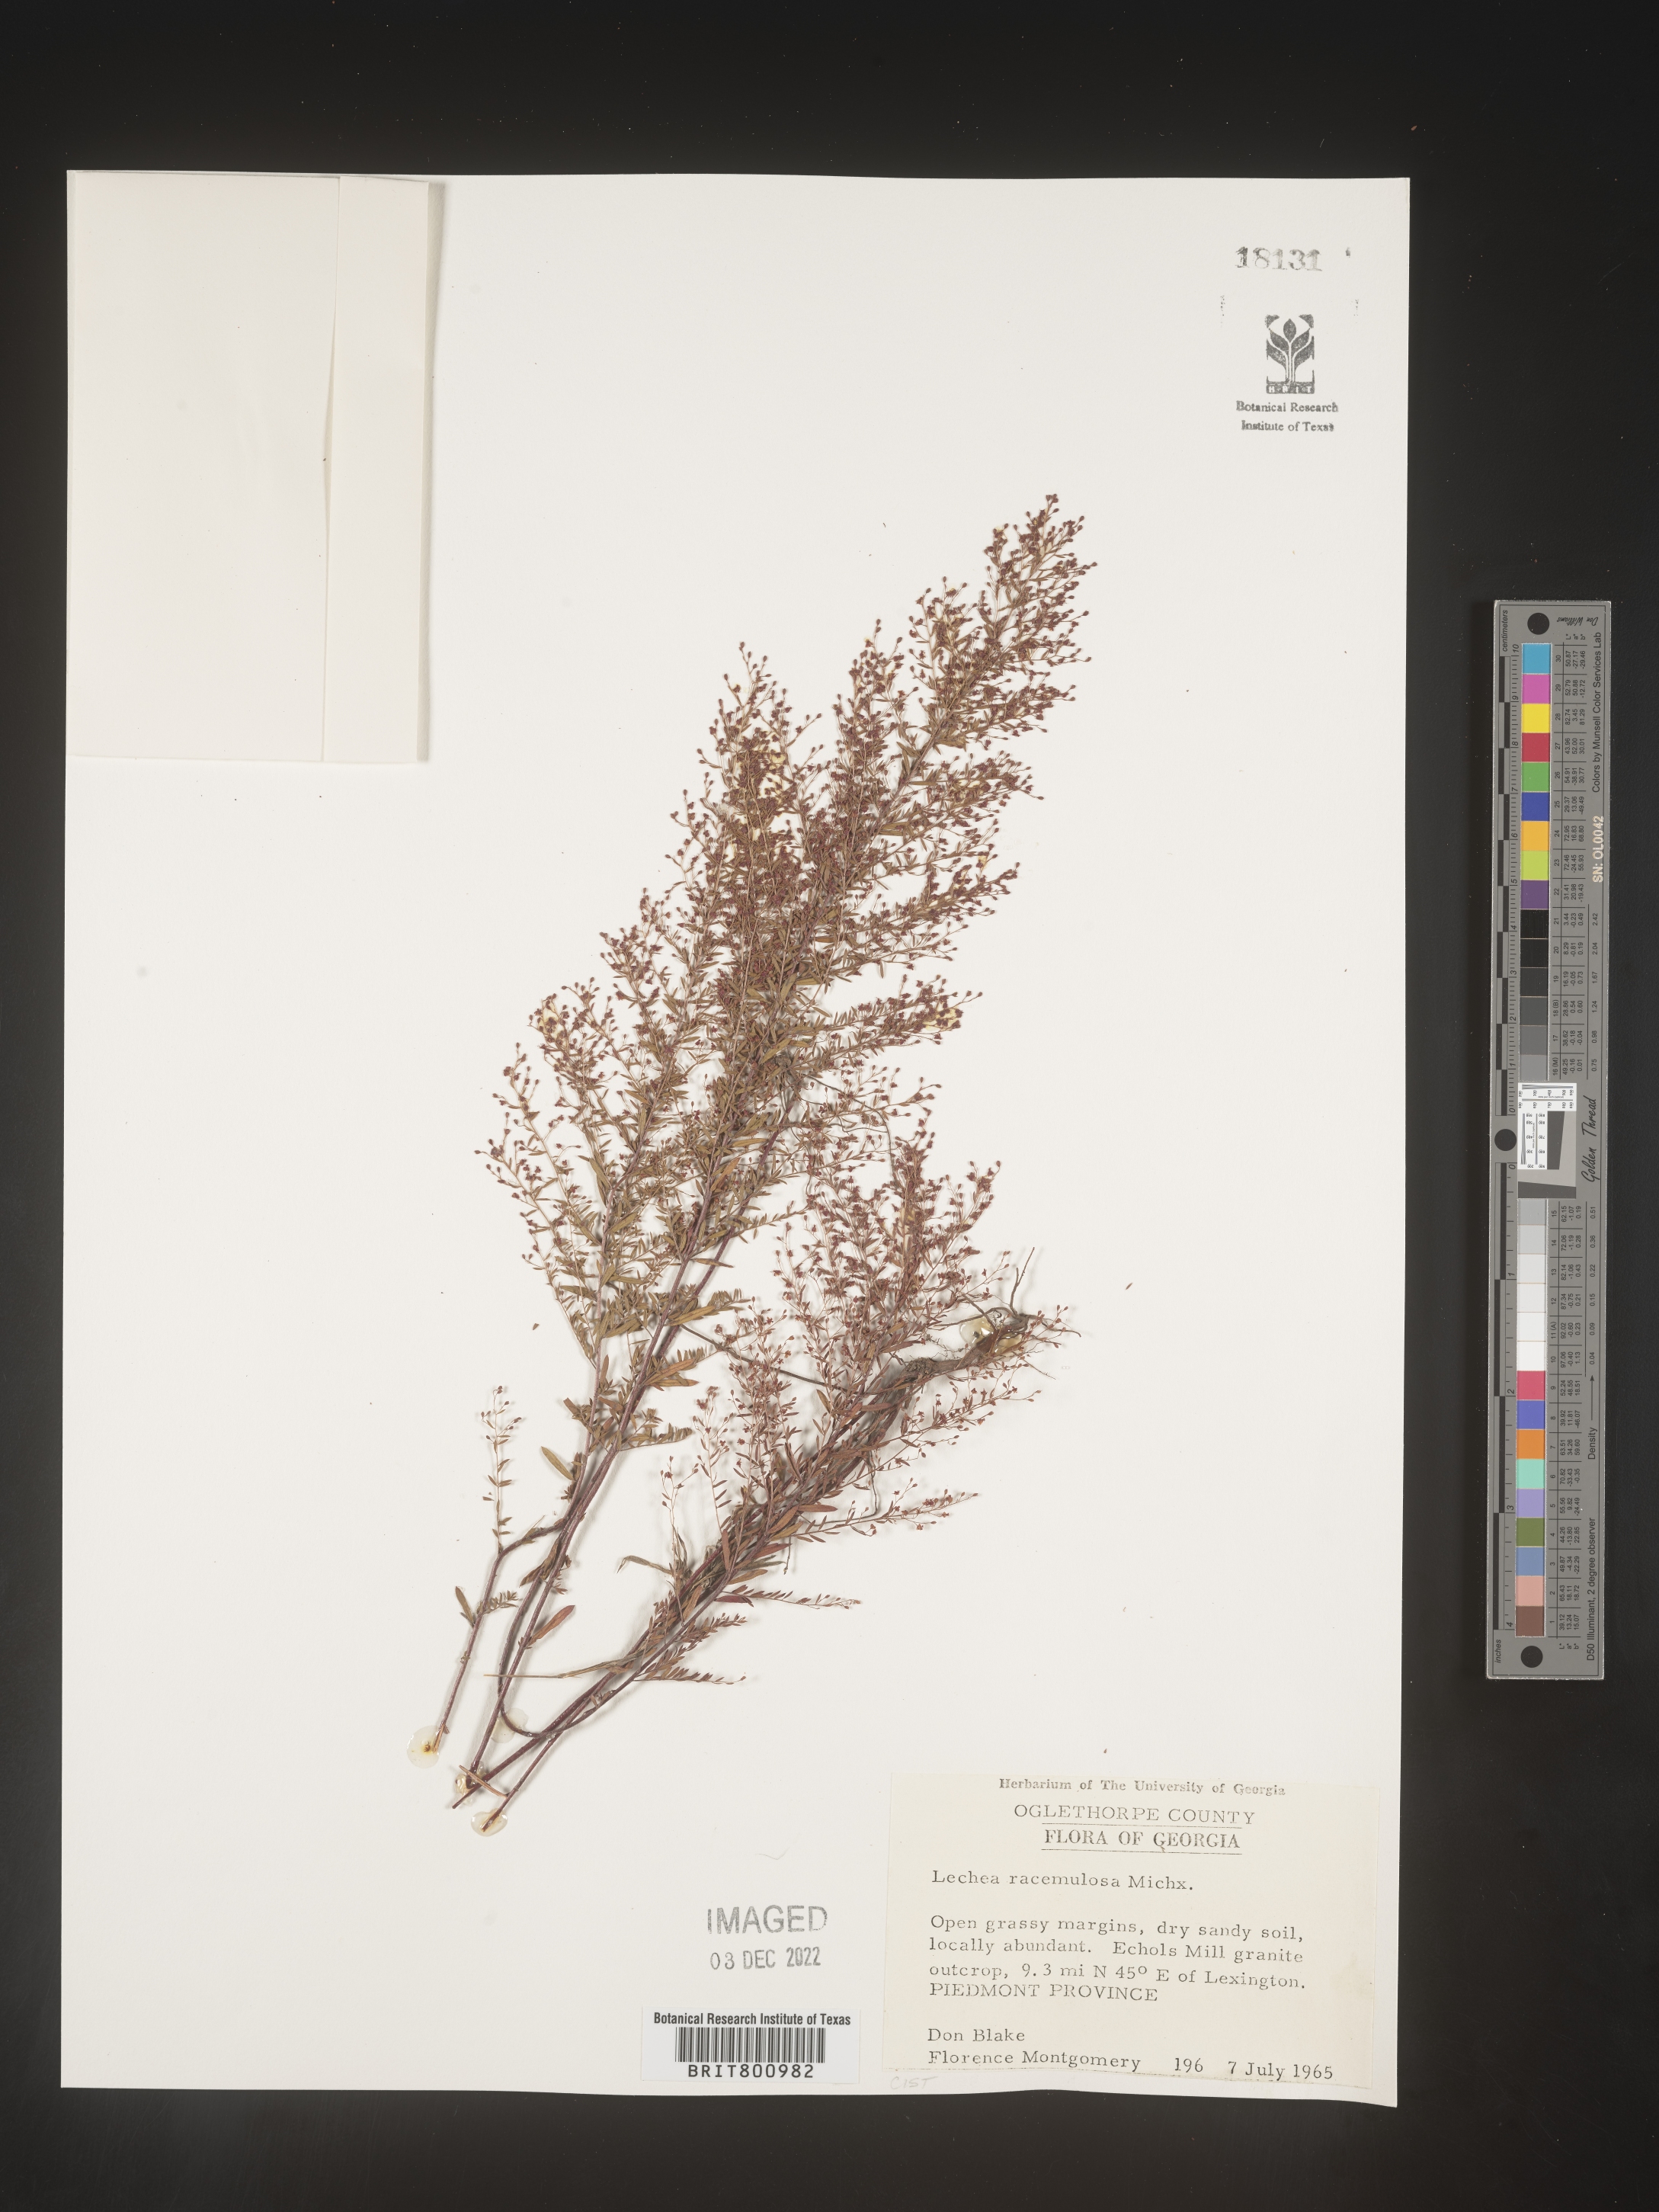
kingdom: Plantae
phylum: Tracheophyta
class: Magnoliopsida
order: Malvales
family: Cistaceae
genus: Lechea
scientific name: Lechea racemulosa
